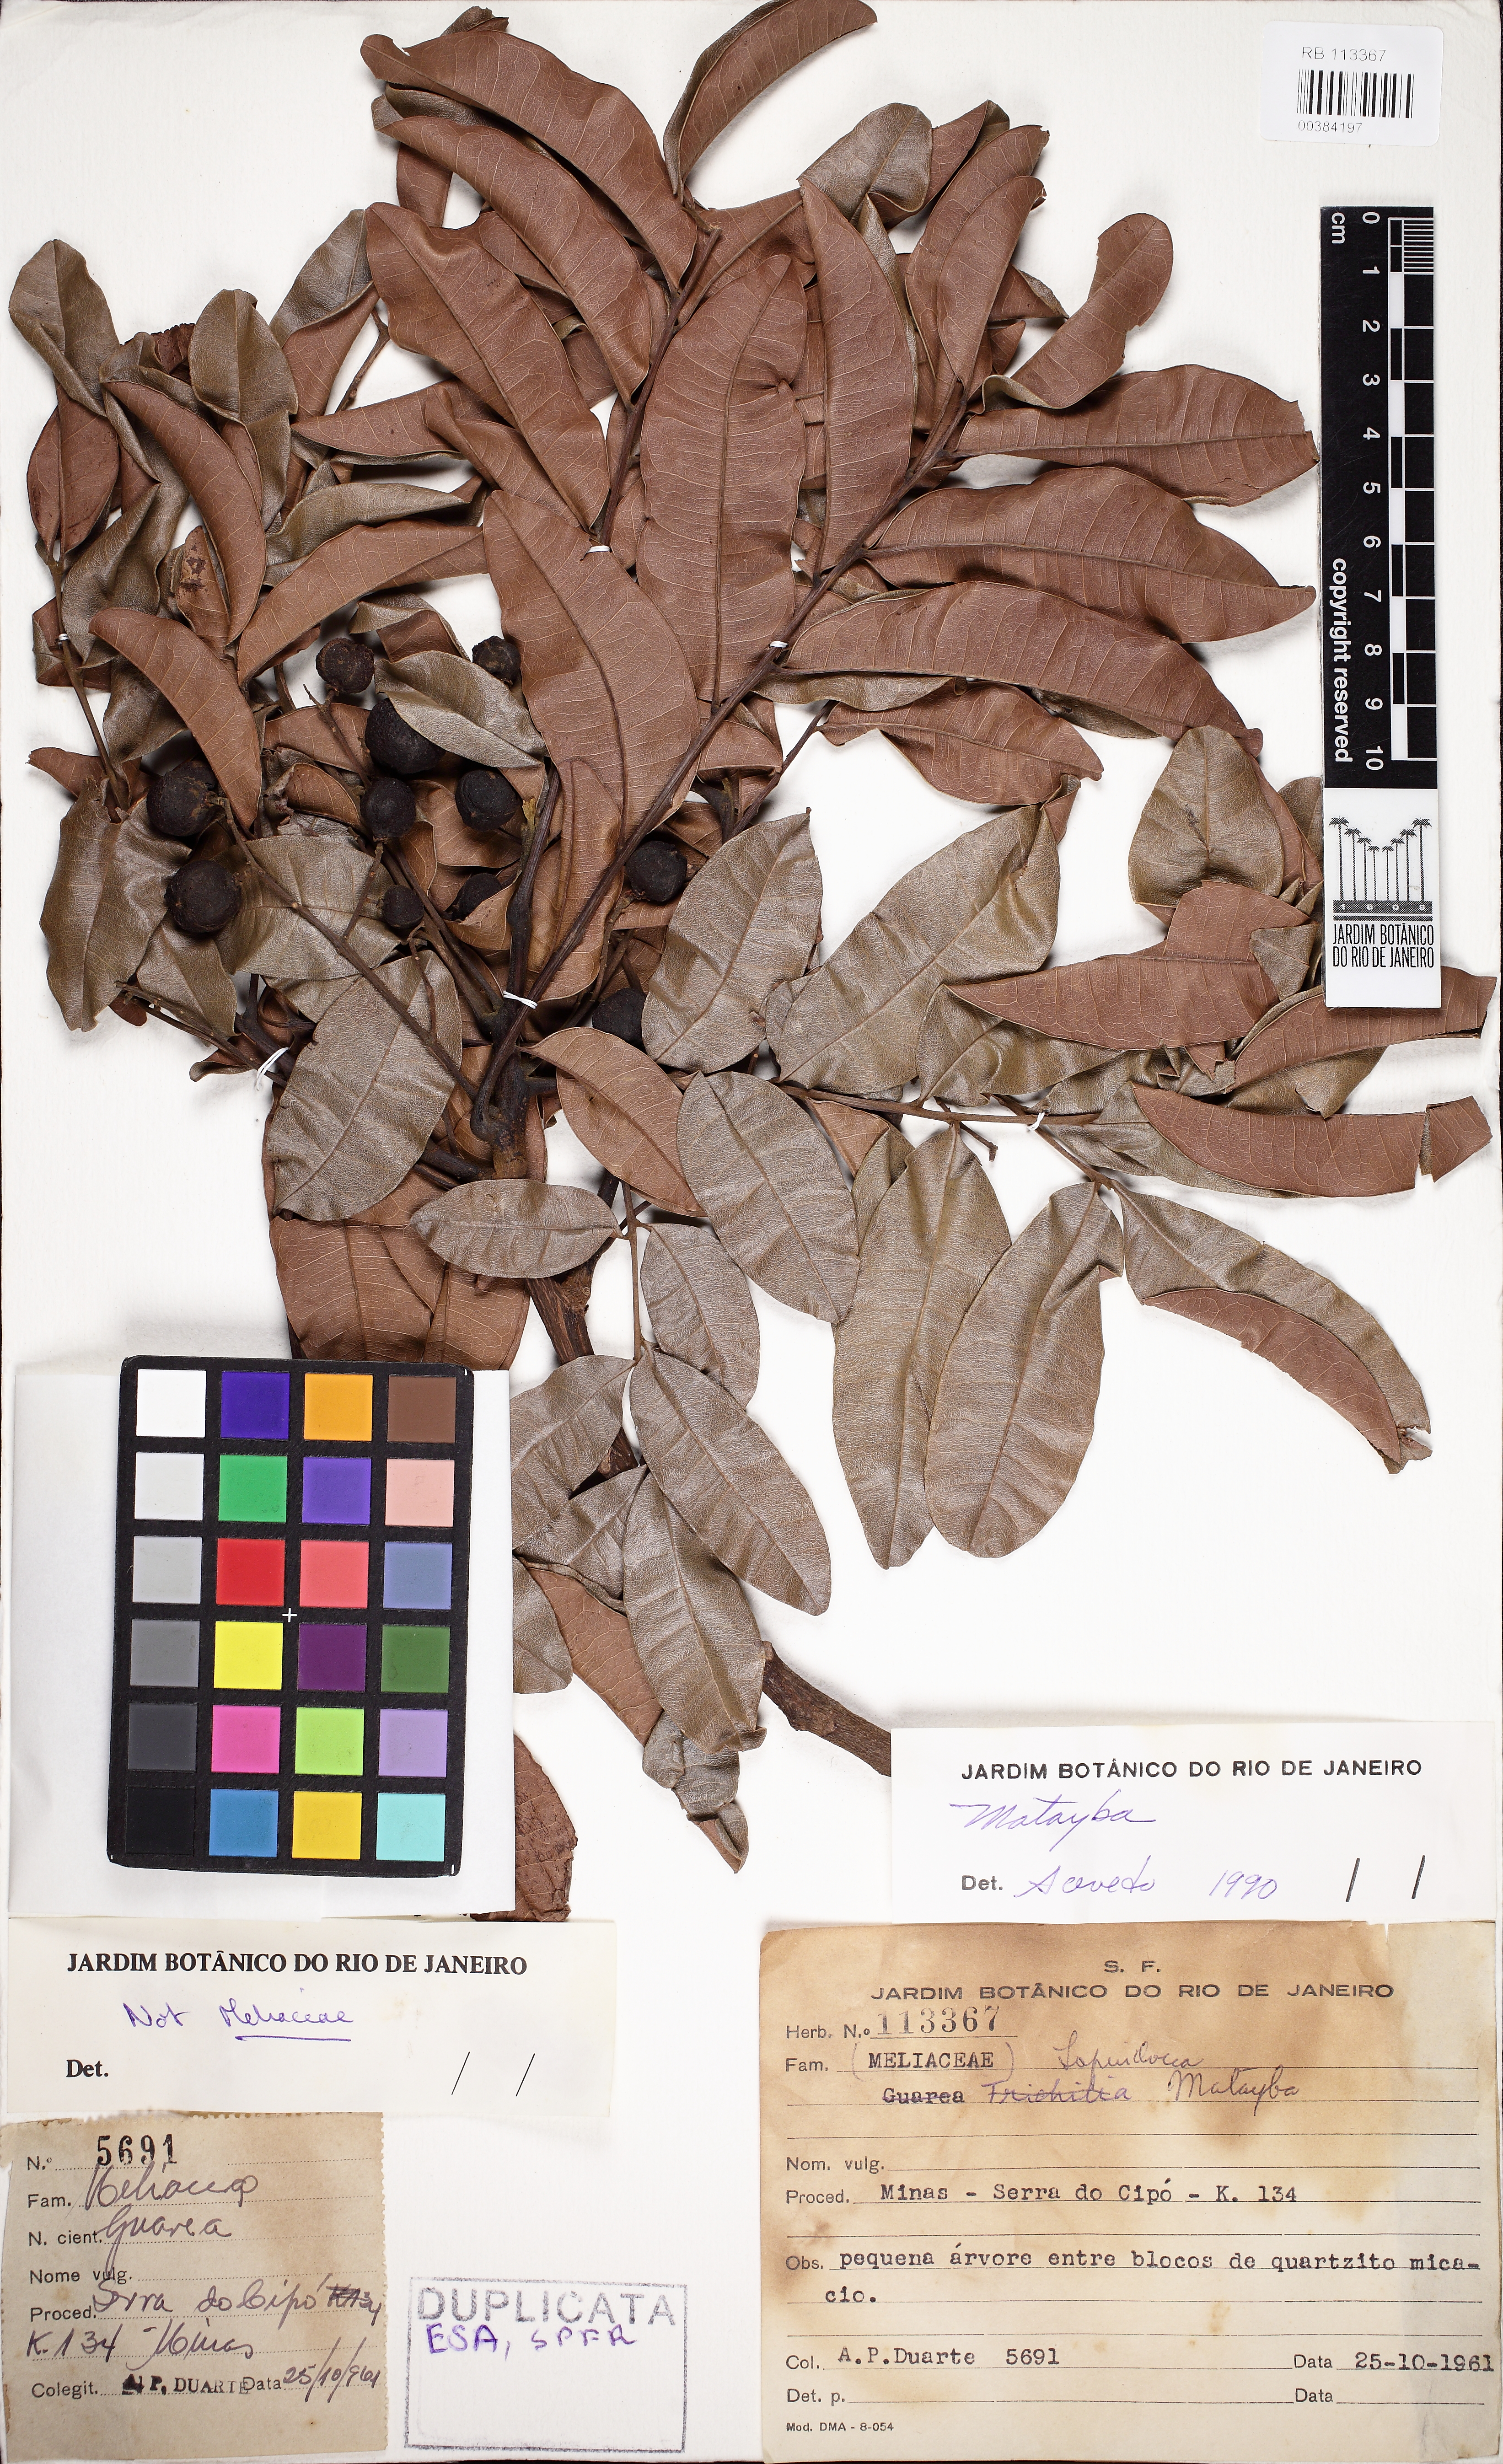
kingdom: Plantae
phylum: Tracheophyta
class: Magnoliopsida
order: Sapindales
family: Sapindaceae
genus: Matayba
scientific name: Matayba stenodictya
